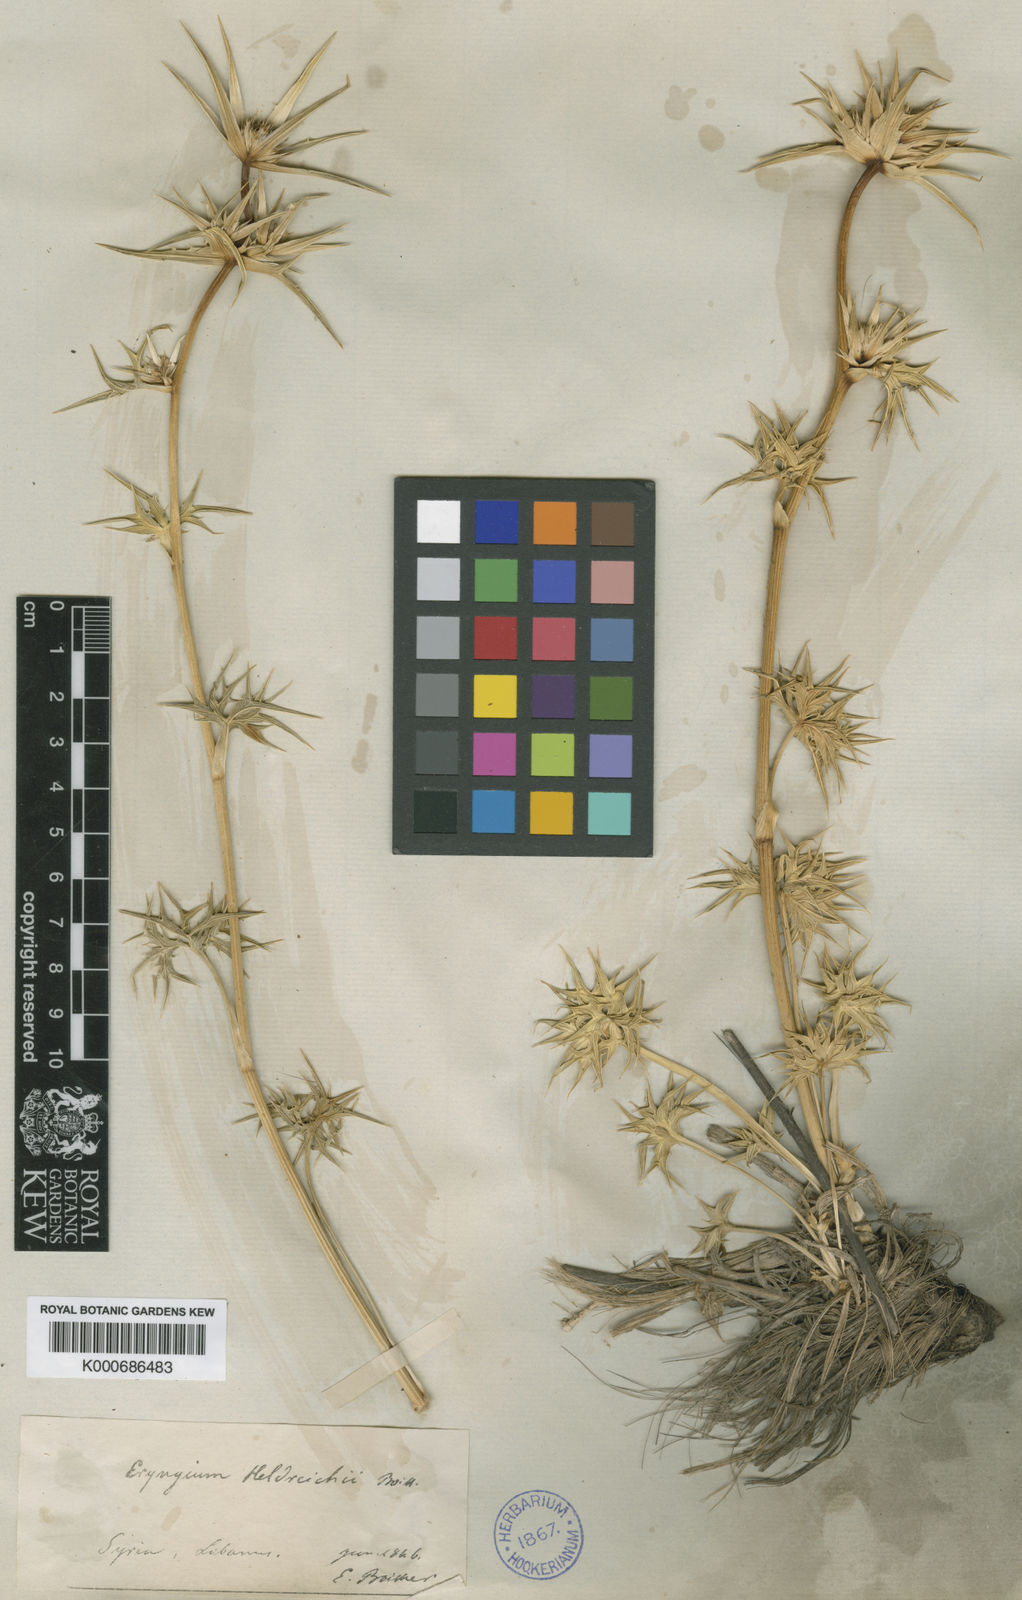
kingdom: Plantae
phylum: Tracheophyta
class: Magnoliopsida
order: Apiales
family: Apiaceae
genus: Eryngium
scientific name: Eryngium heldreichii
